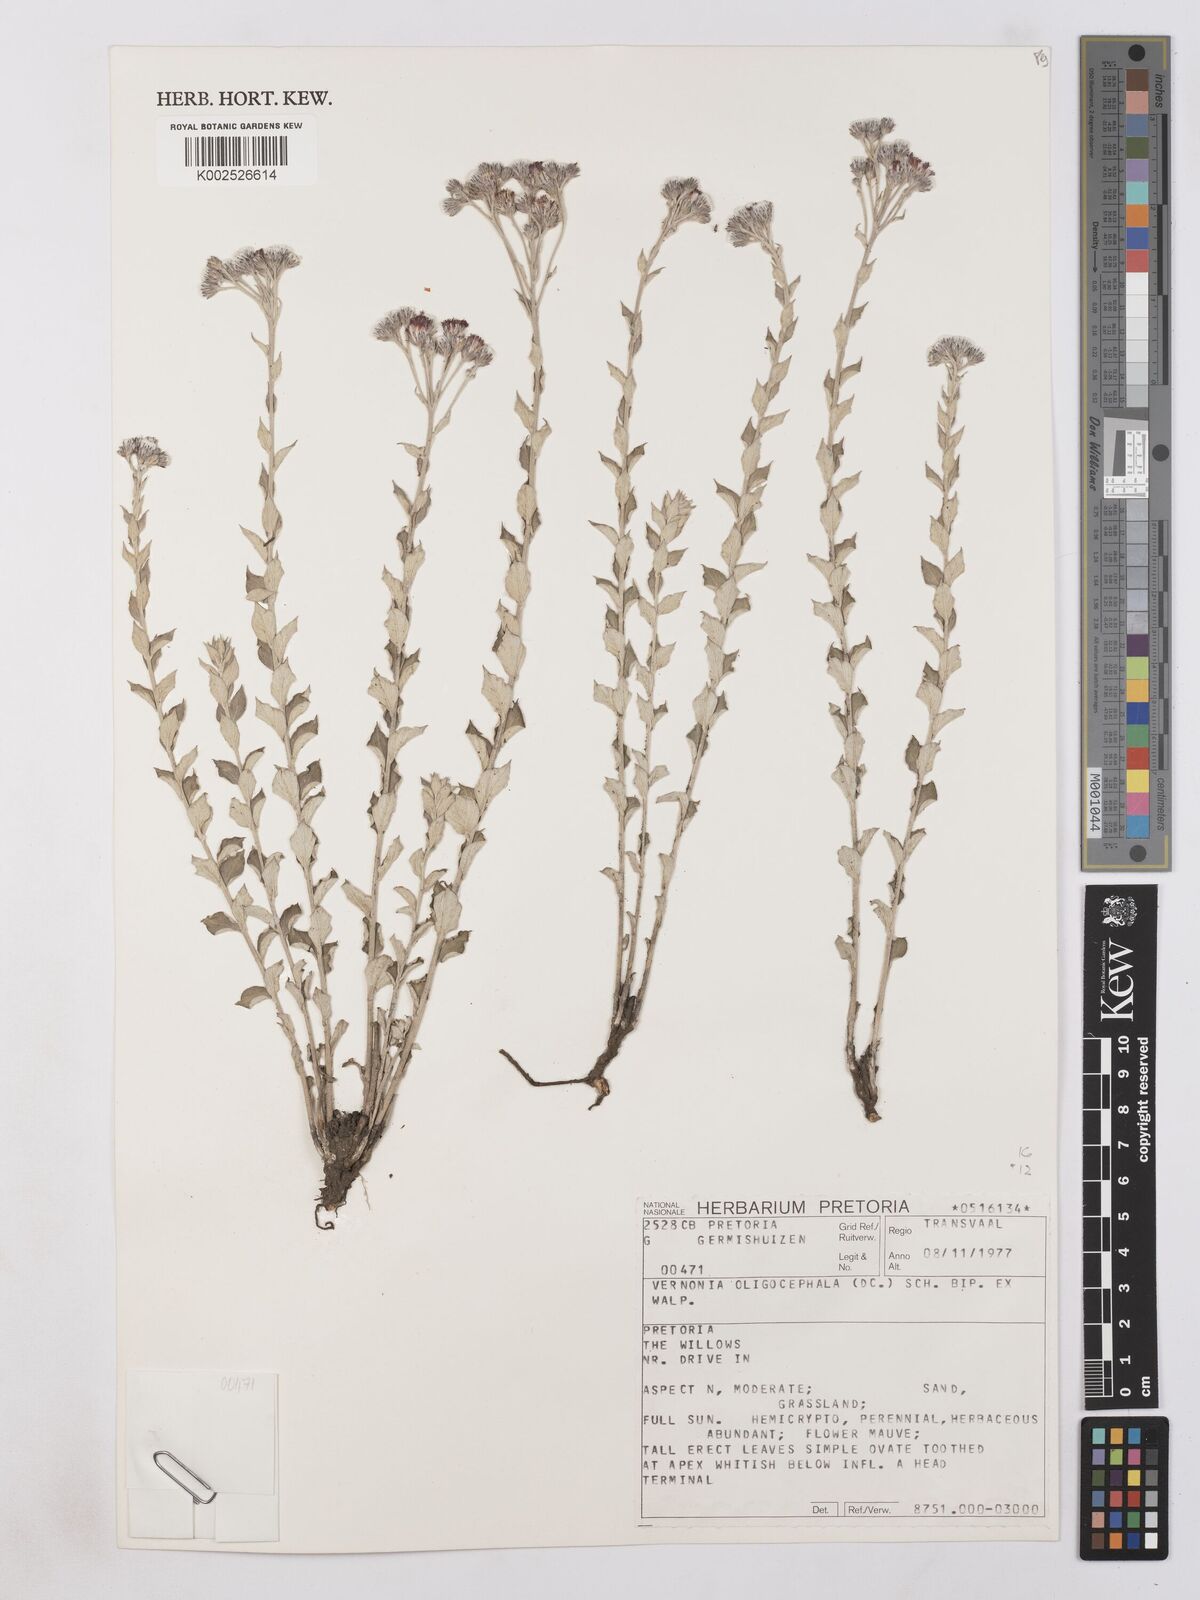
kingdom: Plantae
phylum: Tracheophyta
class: Magnoliopsida
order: Asterales
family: Asteraceae
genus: Hilliardiella
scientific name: Hilliardiella oligocephala
